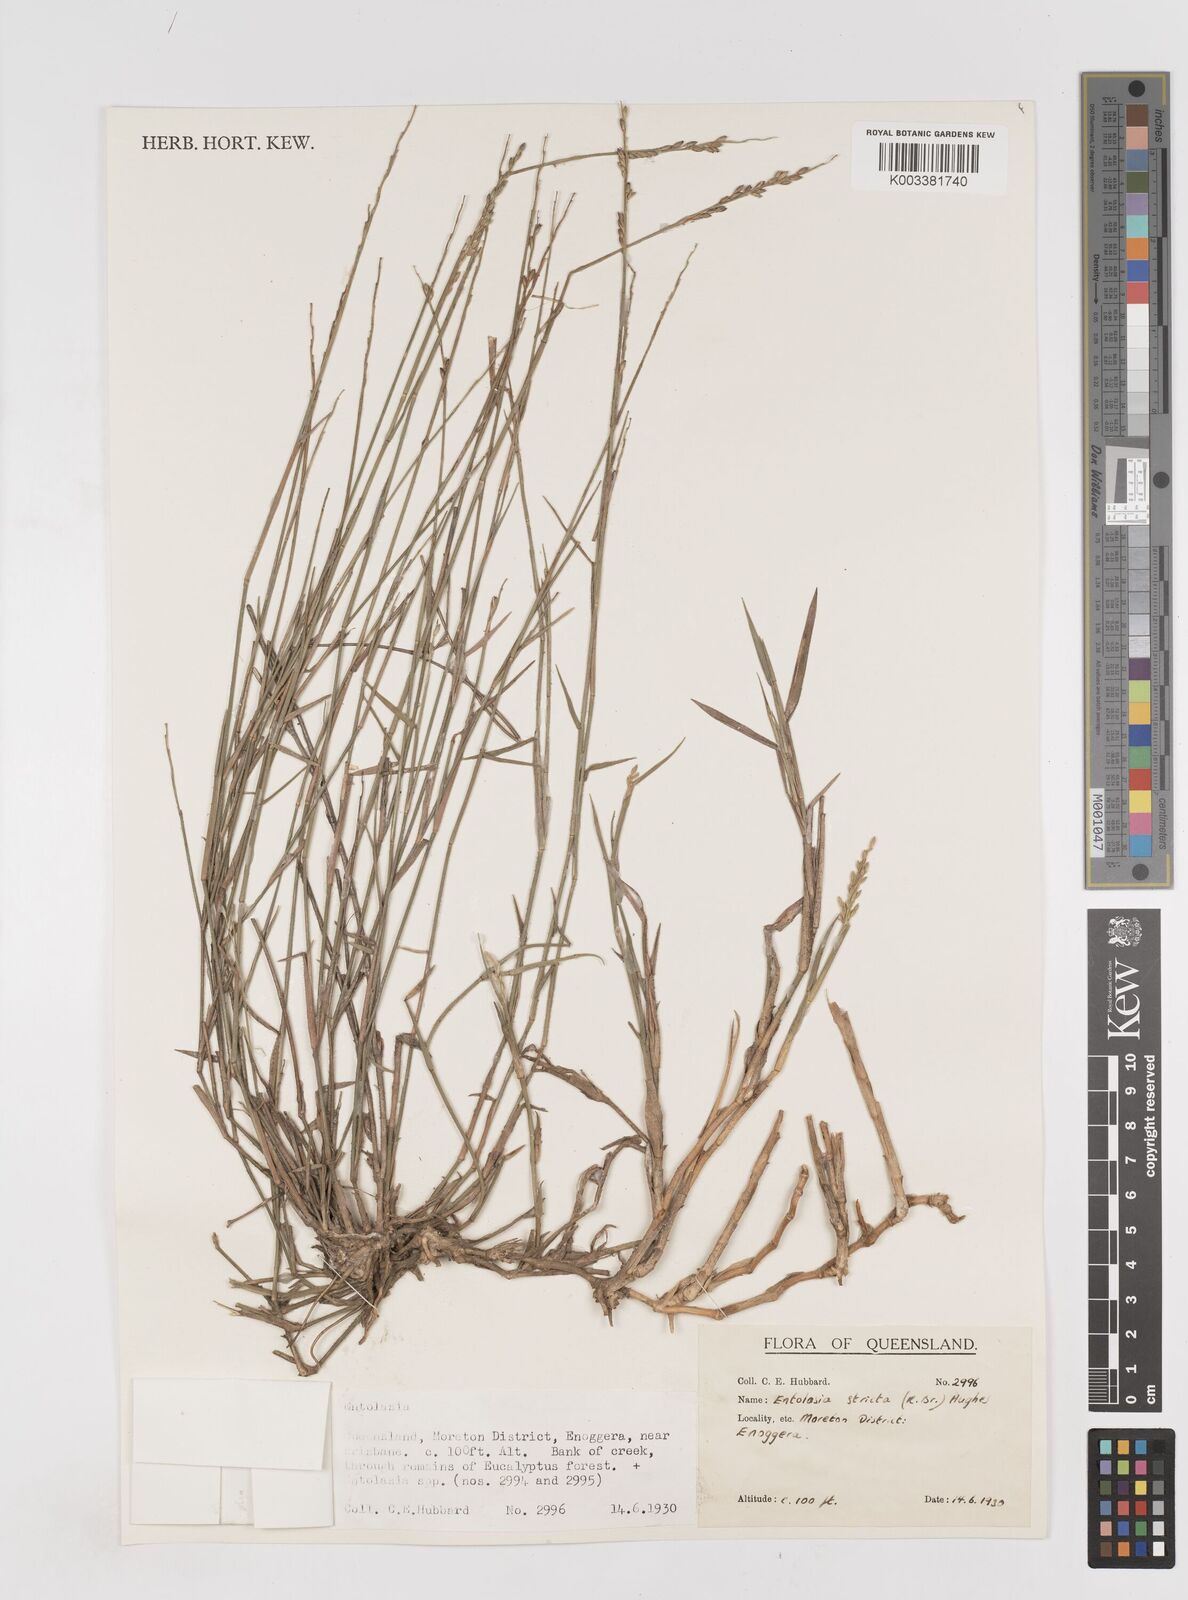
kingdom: Plantae
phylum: Tracheophyta
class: Liliopsida
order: Poales
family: Poaceae
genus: Entolasia
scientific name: Entolasia stricta
